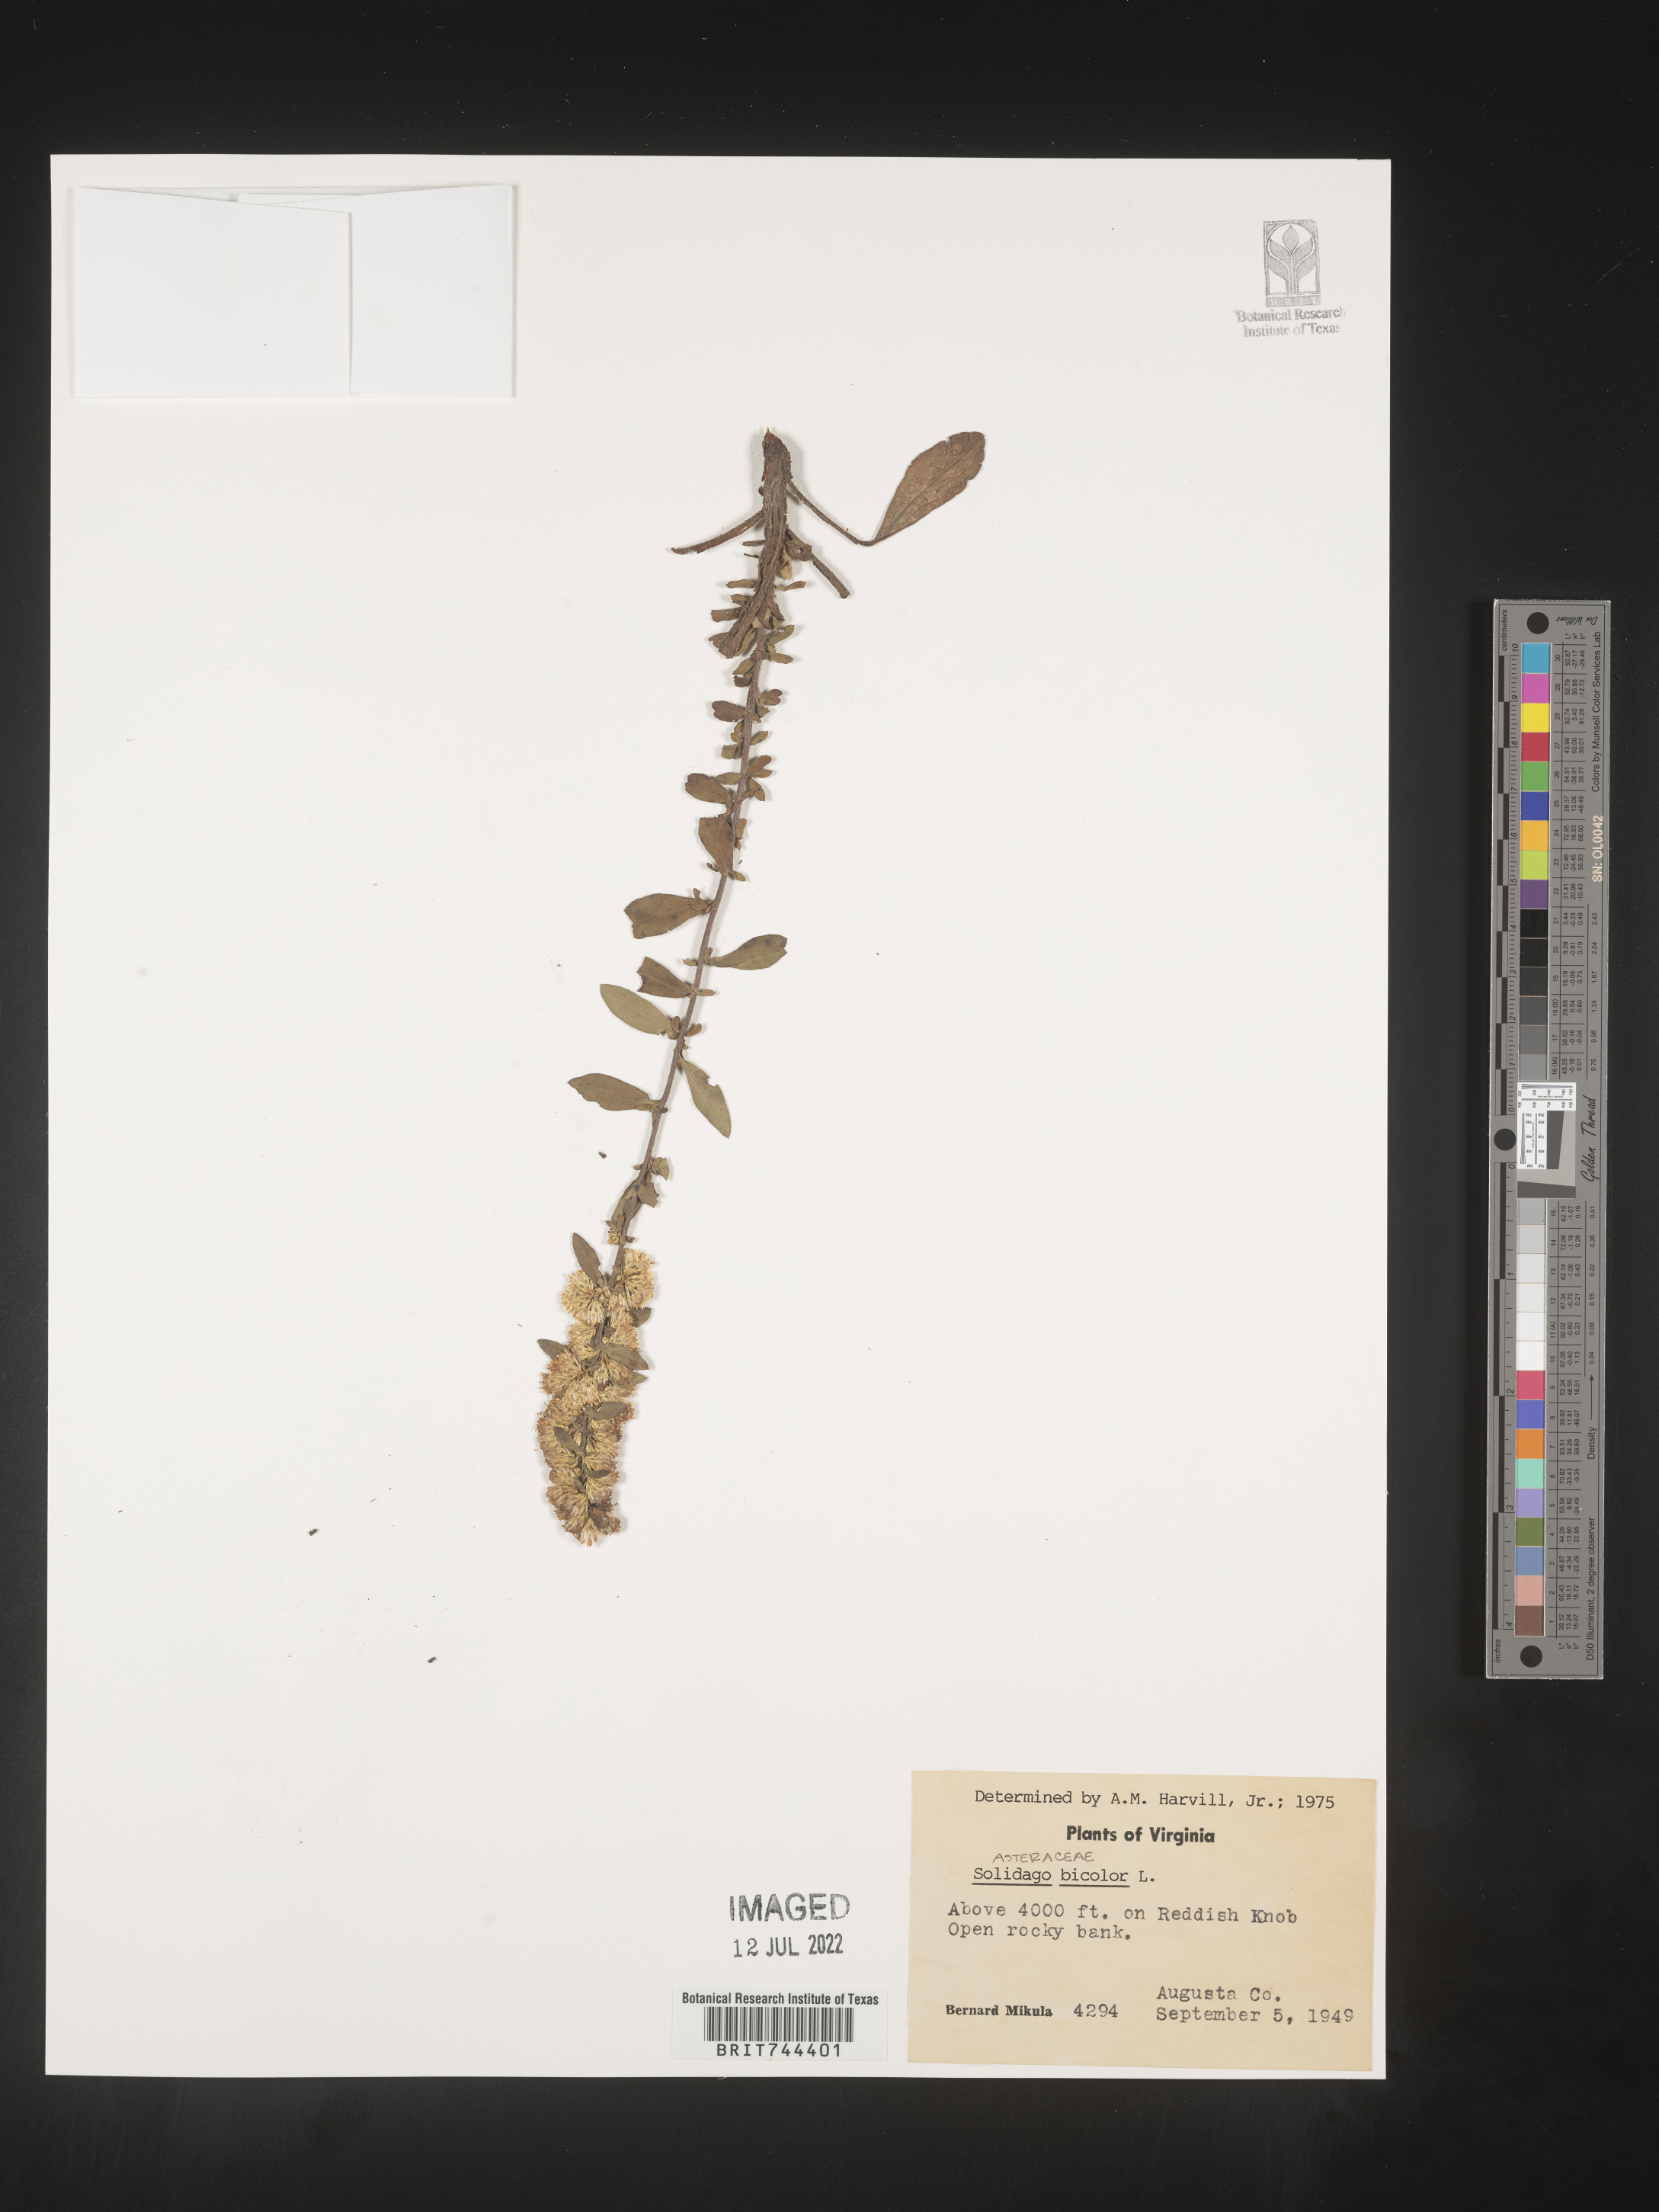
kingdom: Plantae
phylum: Tracheophyta
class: Magnoliopsida
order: Asterales
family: Asteraceae
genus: Solidago
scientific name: Solidago bicolor
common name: Silverrod
